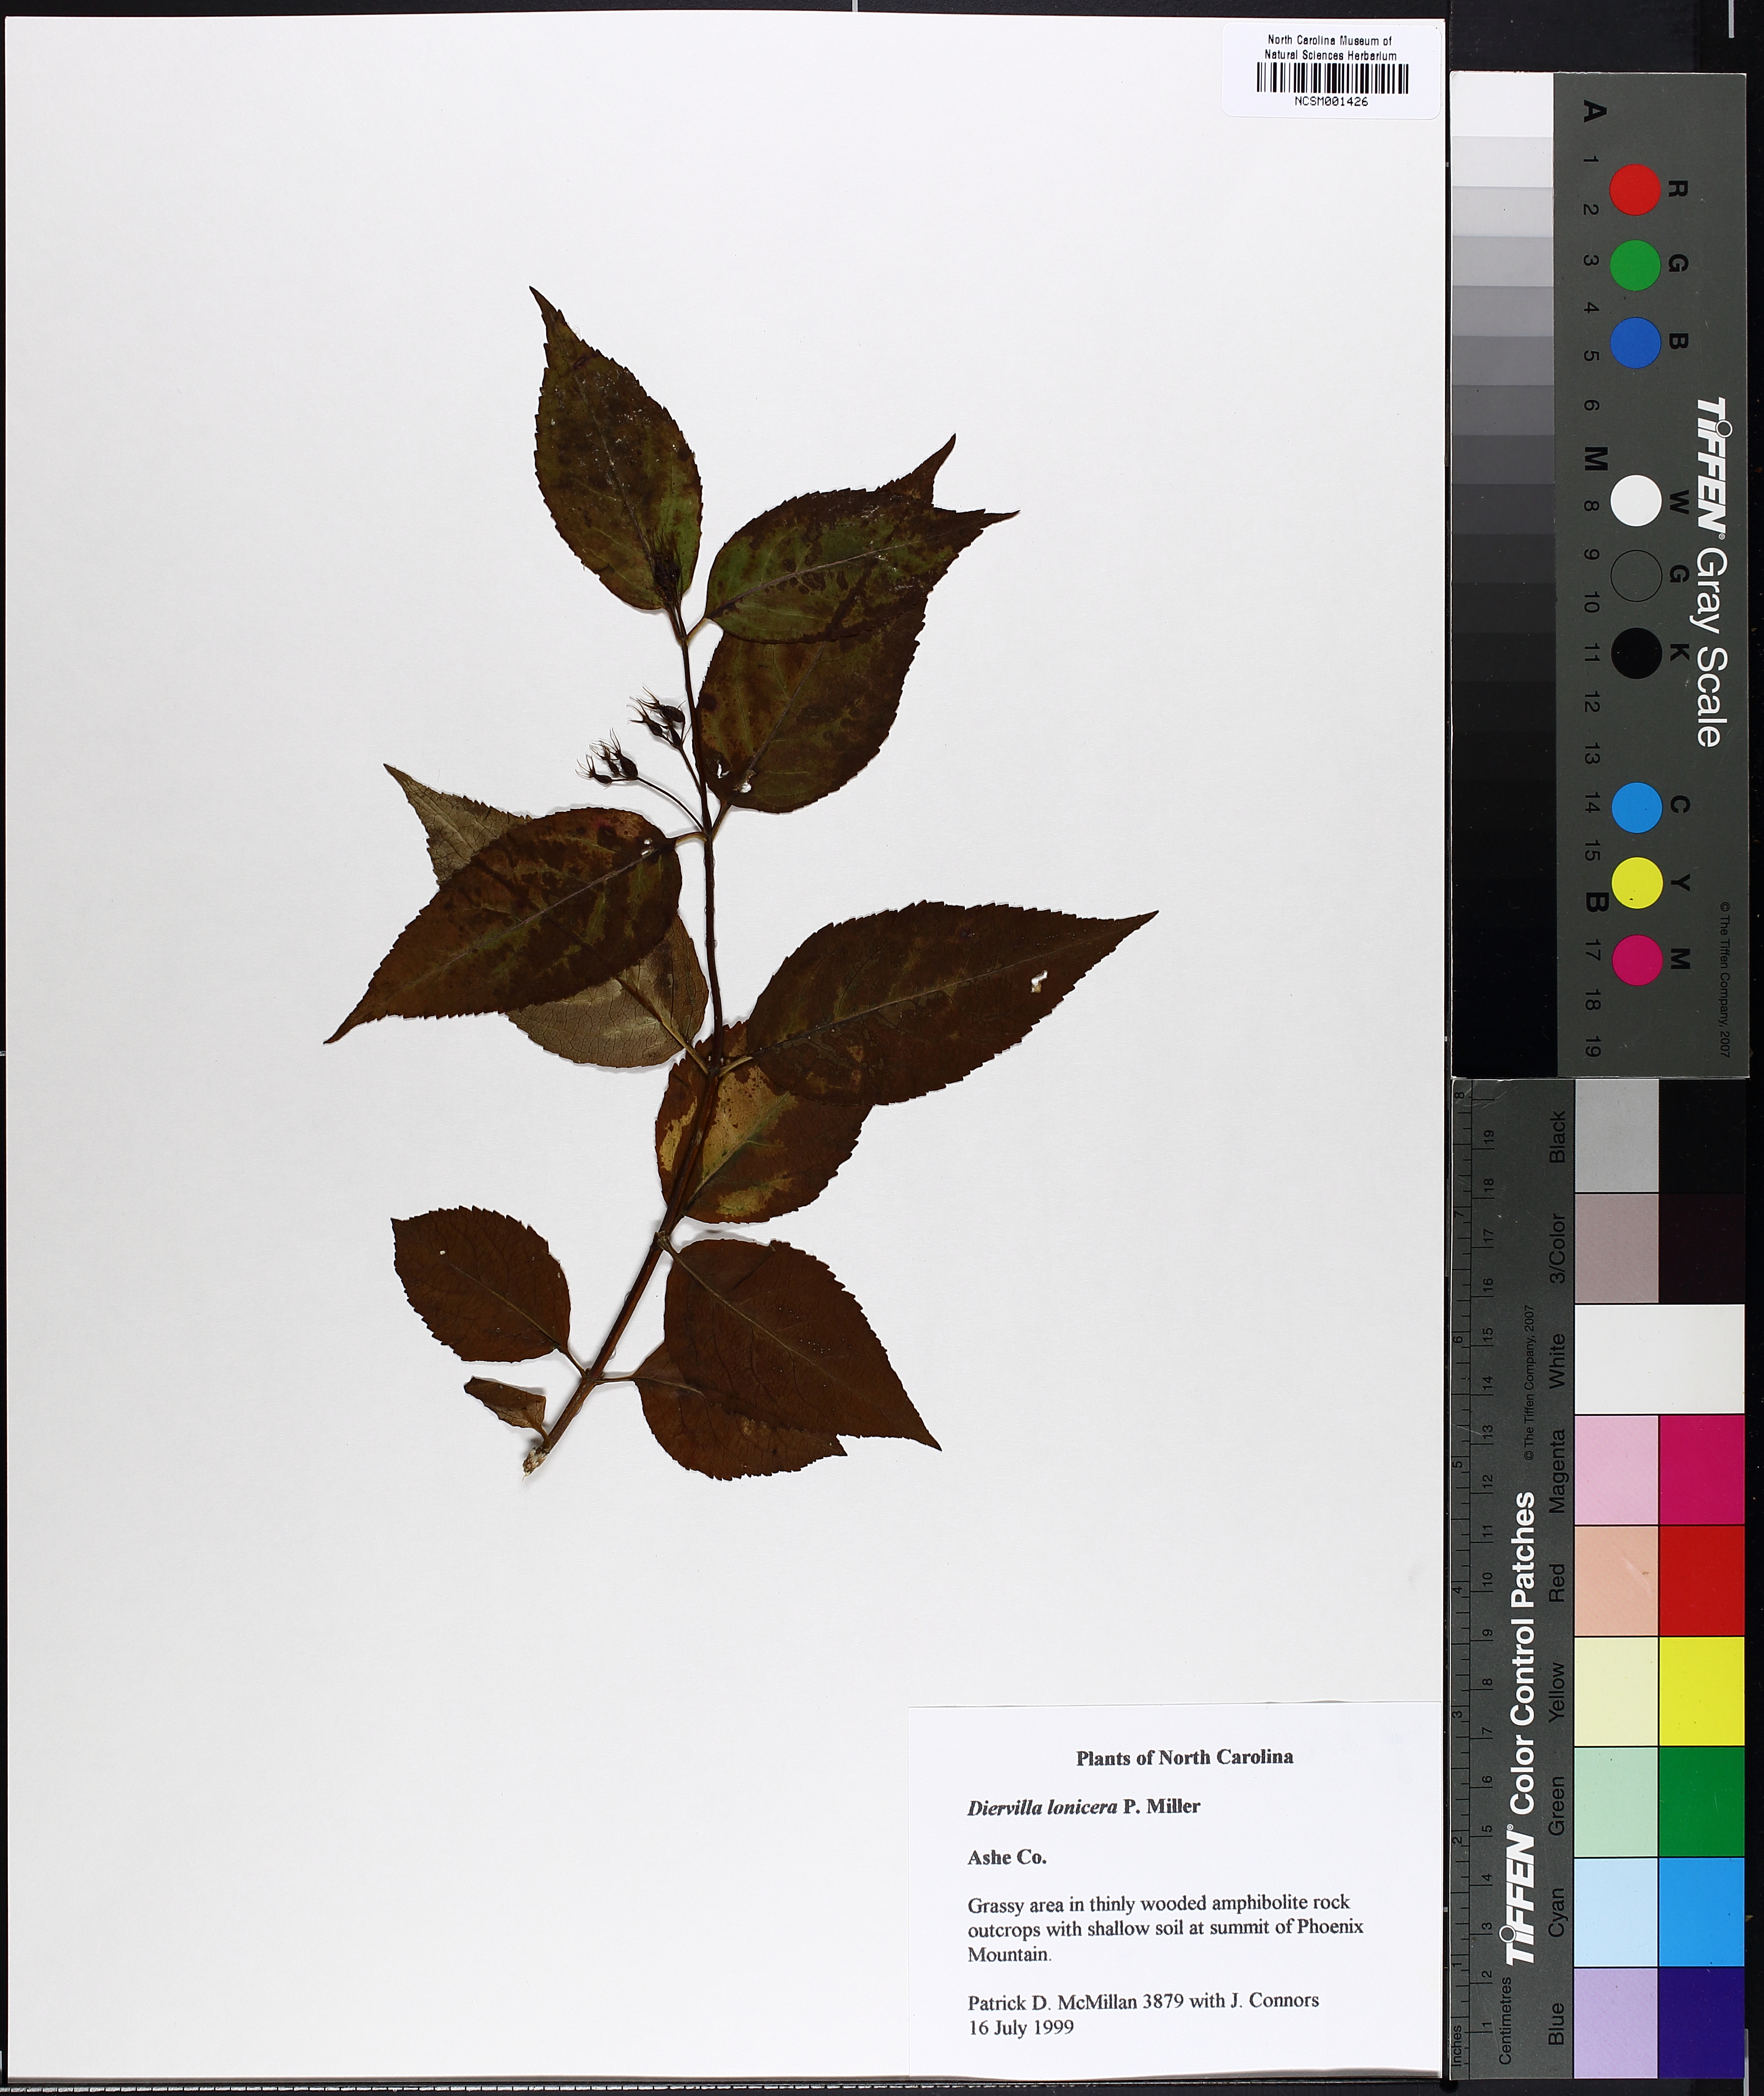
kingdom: Plantae
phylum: Tracheophyta
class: Magnoliopsida
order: Dipsacales
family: Caprifoliaceae
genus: Diervilla
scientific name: Diervilla lonicera
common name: Bush-honeysuckle
